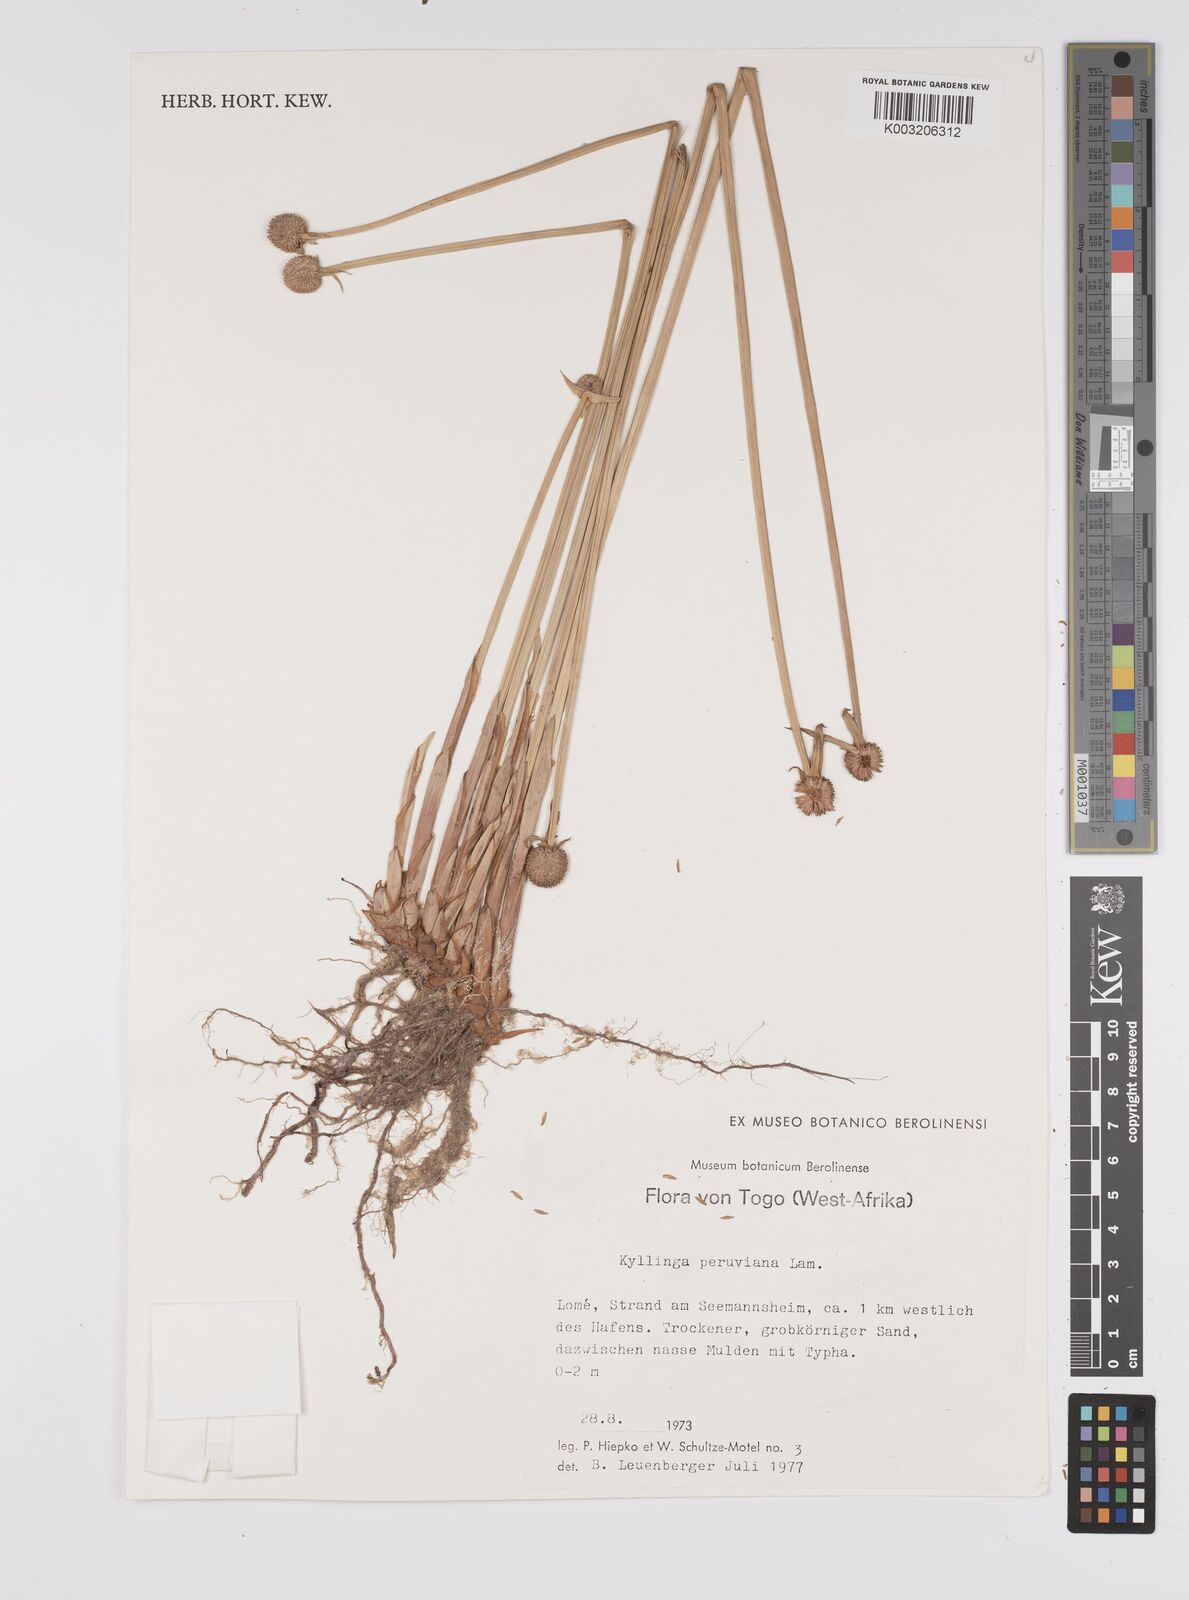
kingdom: Plantae
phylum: Tracheophyta
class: Liliopsida
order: Poales
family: Cyperaceae
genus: Cyperus
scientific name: Cyperus obtusatus
